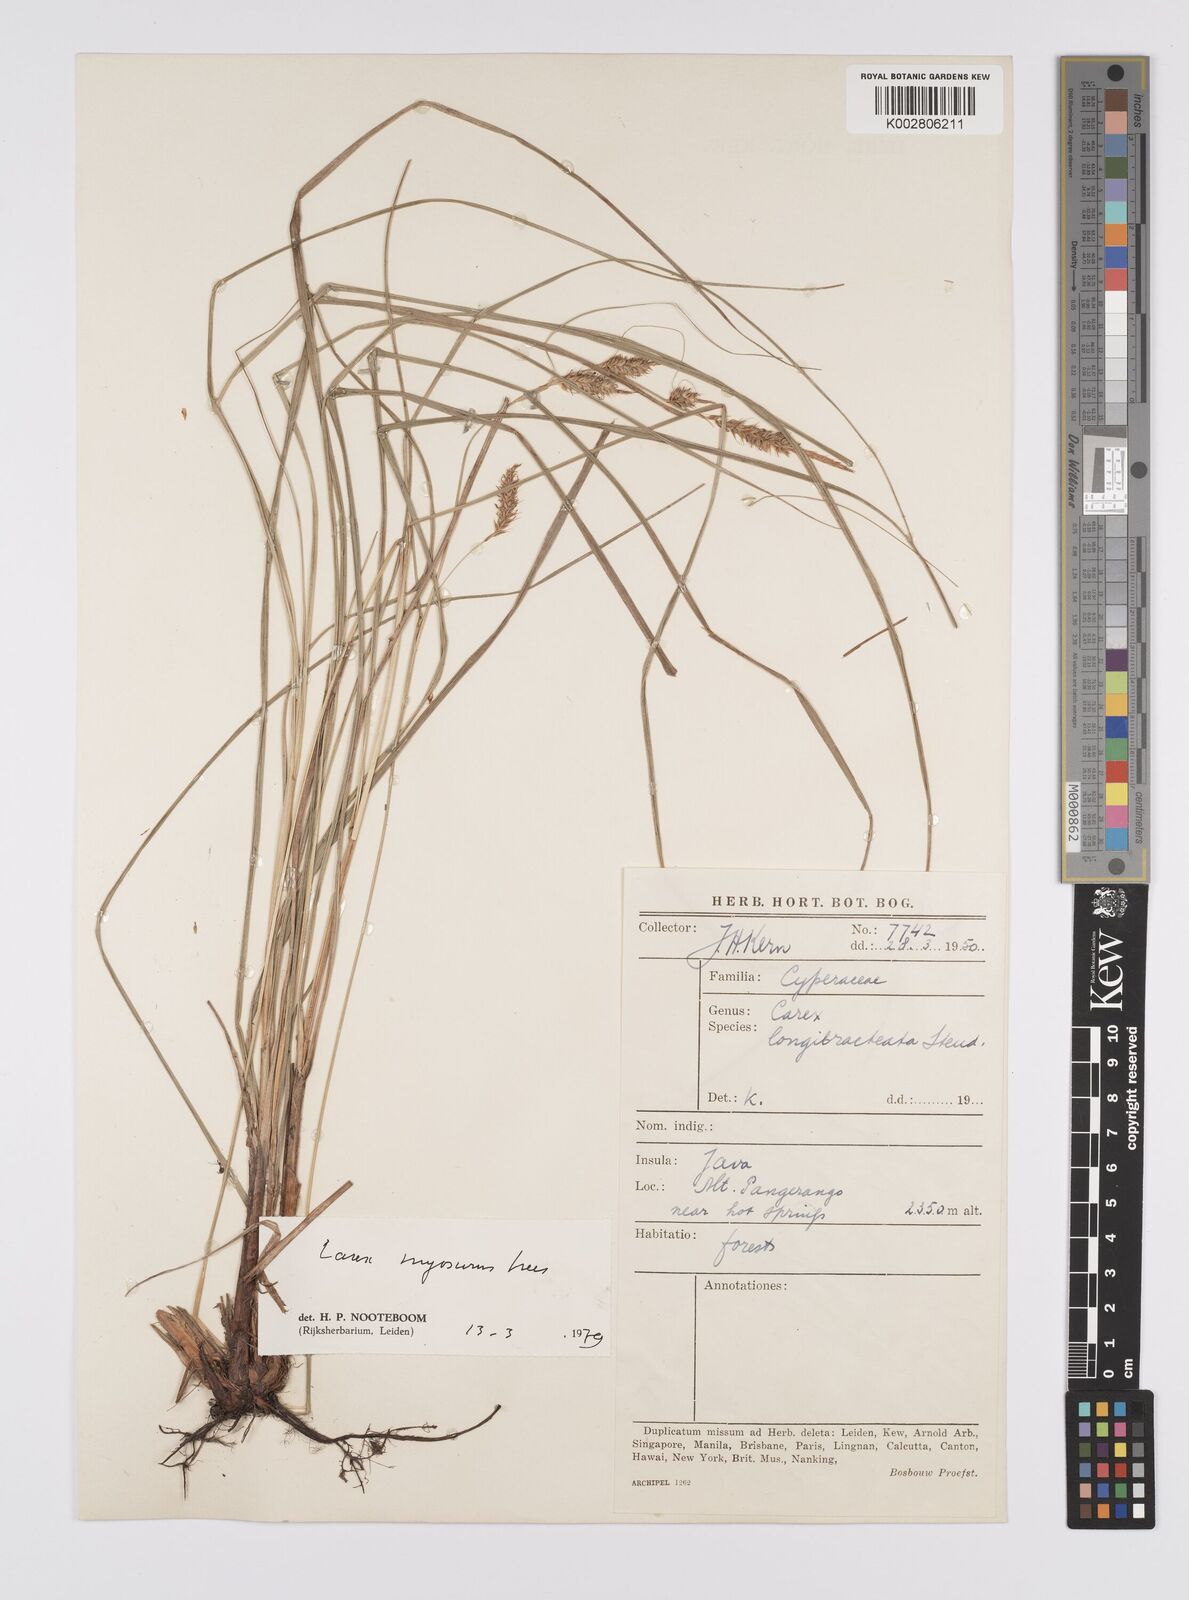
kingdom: Plantae
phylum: Tracheophyta
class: Liliopsida
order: Poales
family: Cyperaceae
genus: Carex
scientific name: Carex myosurus
